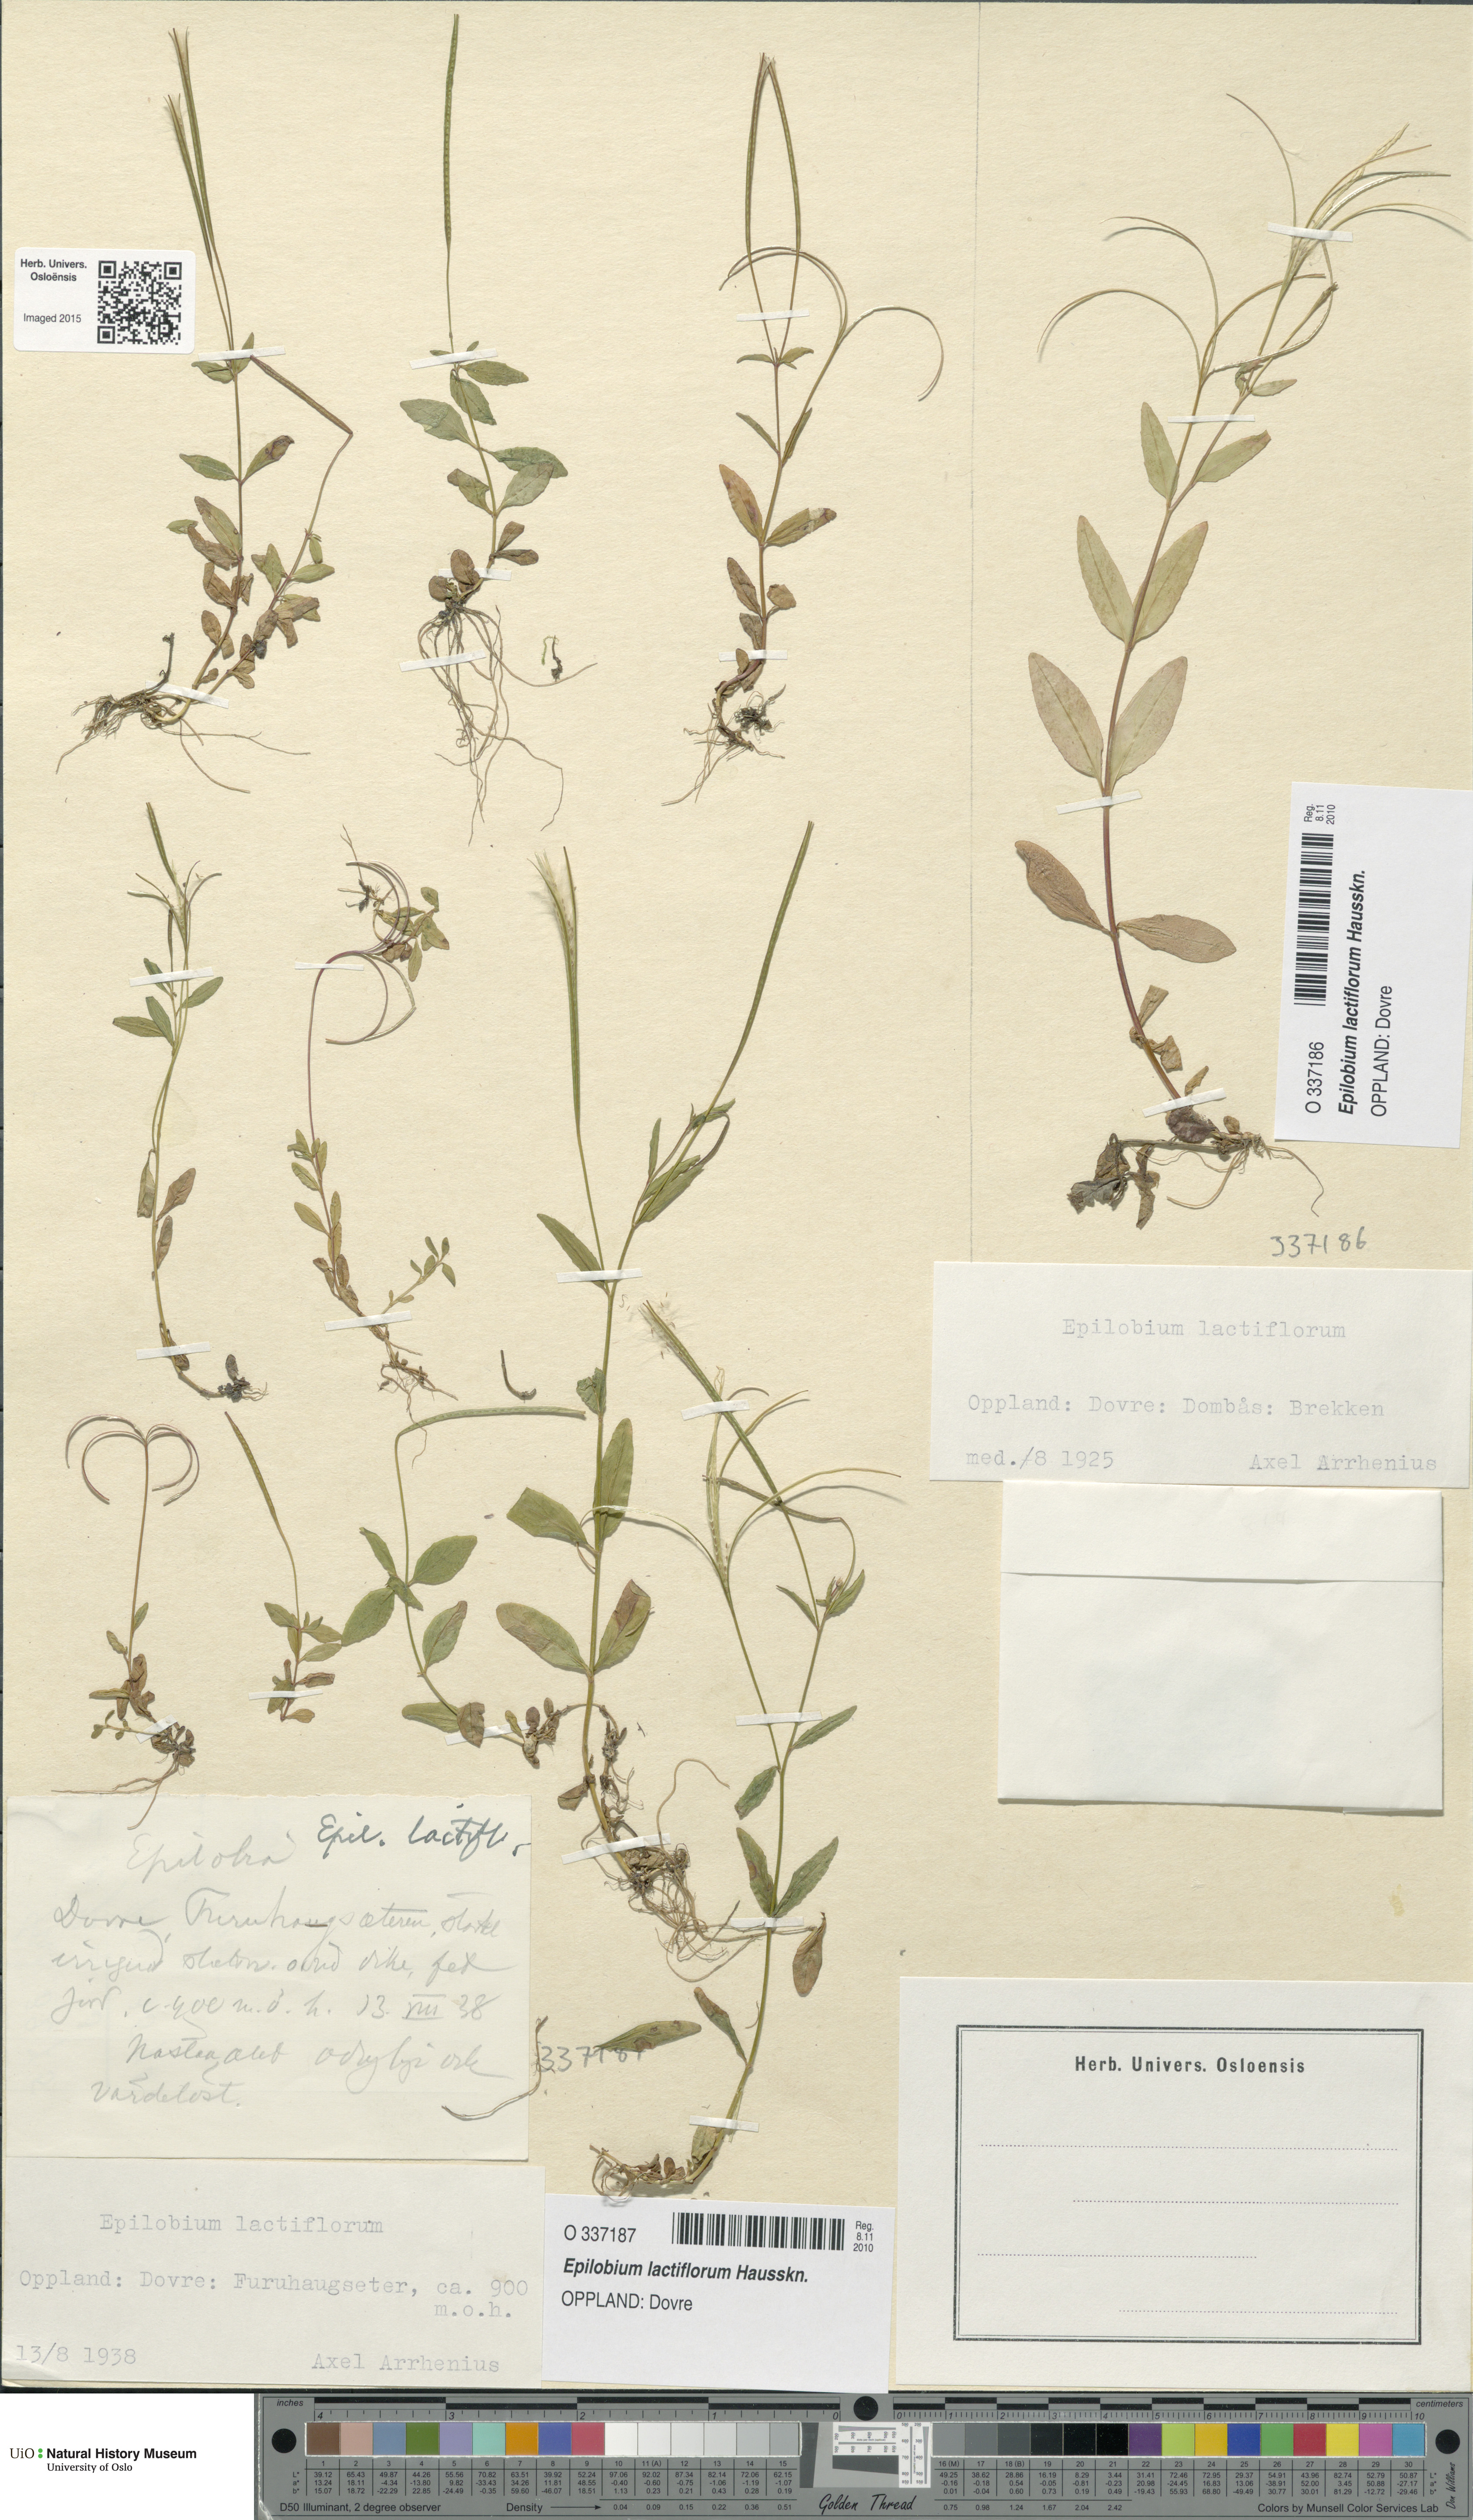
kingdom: Plantae
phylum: Tracheophyta
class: Magnoliopsida
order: Myrtales
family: Onagraceae
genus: Epilobium
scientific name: Epilobium lactiflorum
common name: Milkflower willowherb
